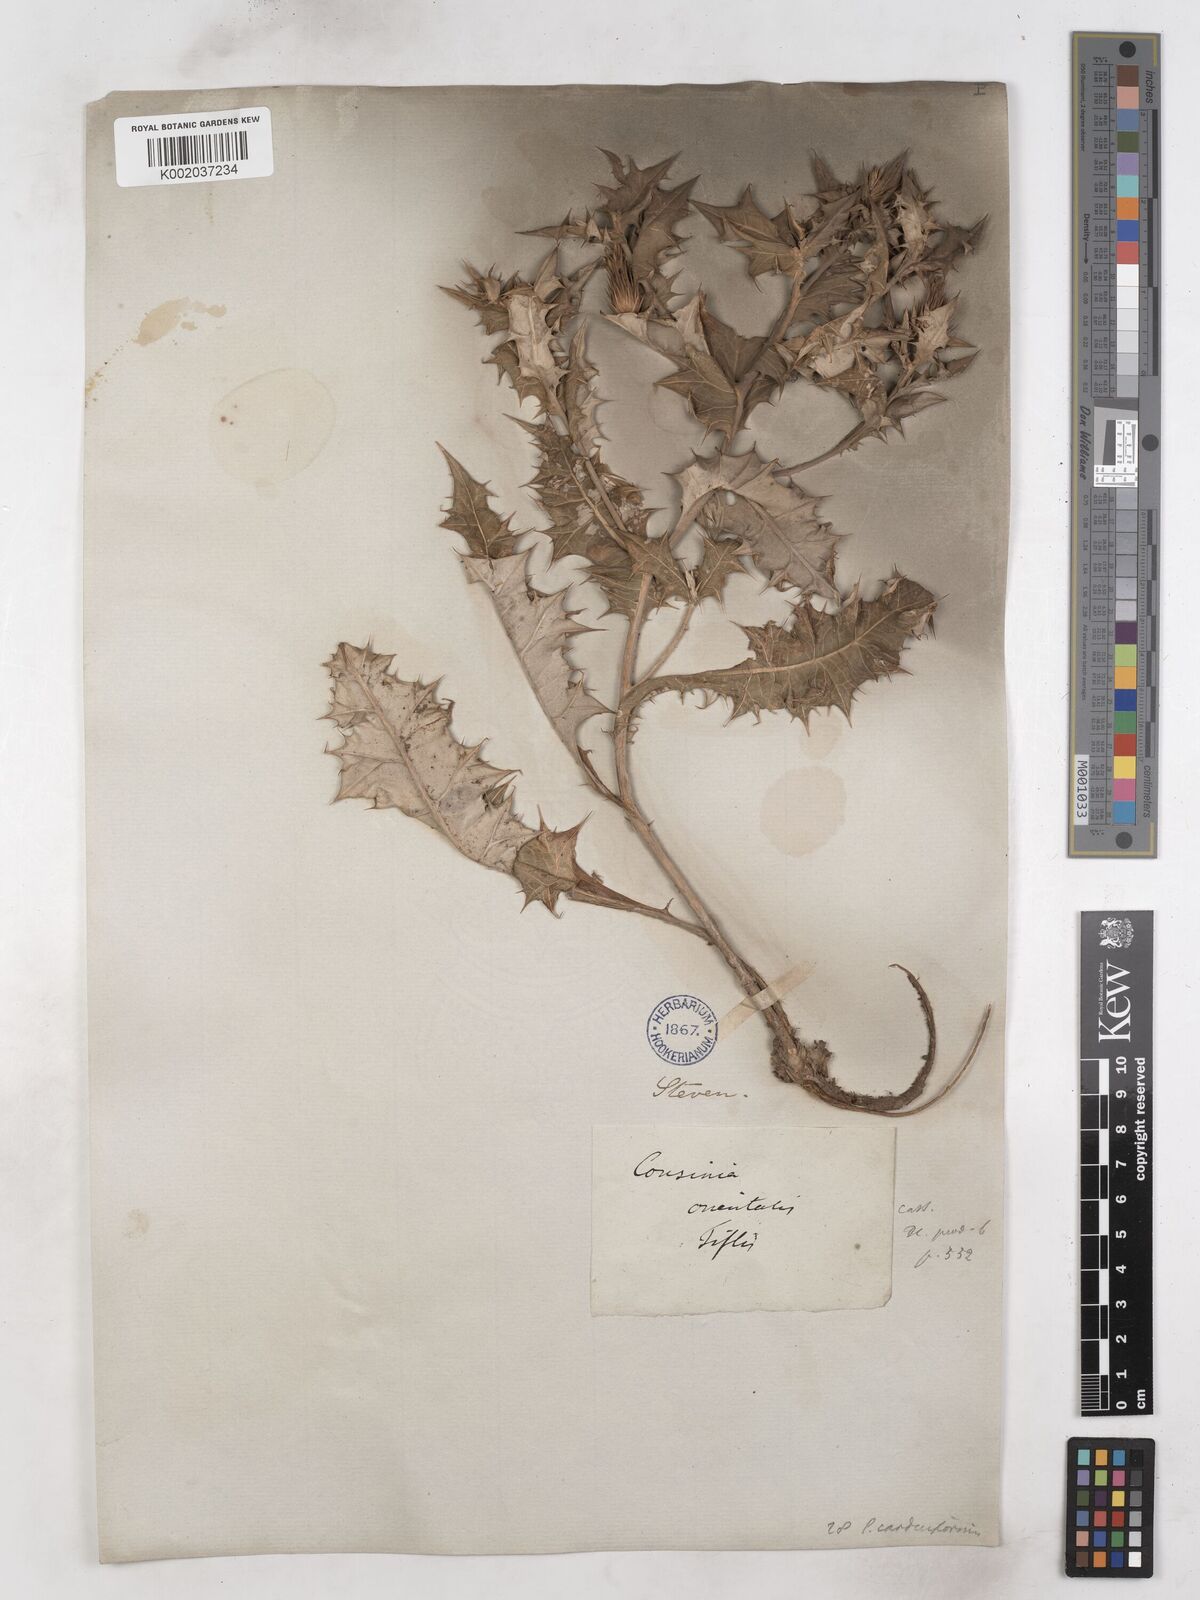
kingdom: Plantae
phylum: Tracheophyta
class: Magnoliopsida
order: Asterales
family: Asteraceae
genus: Cousinia
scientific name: Cousinia
